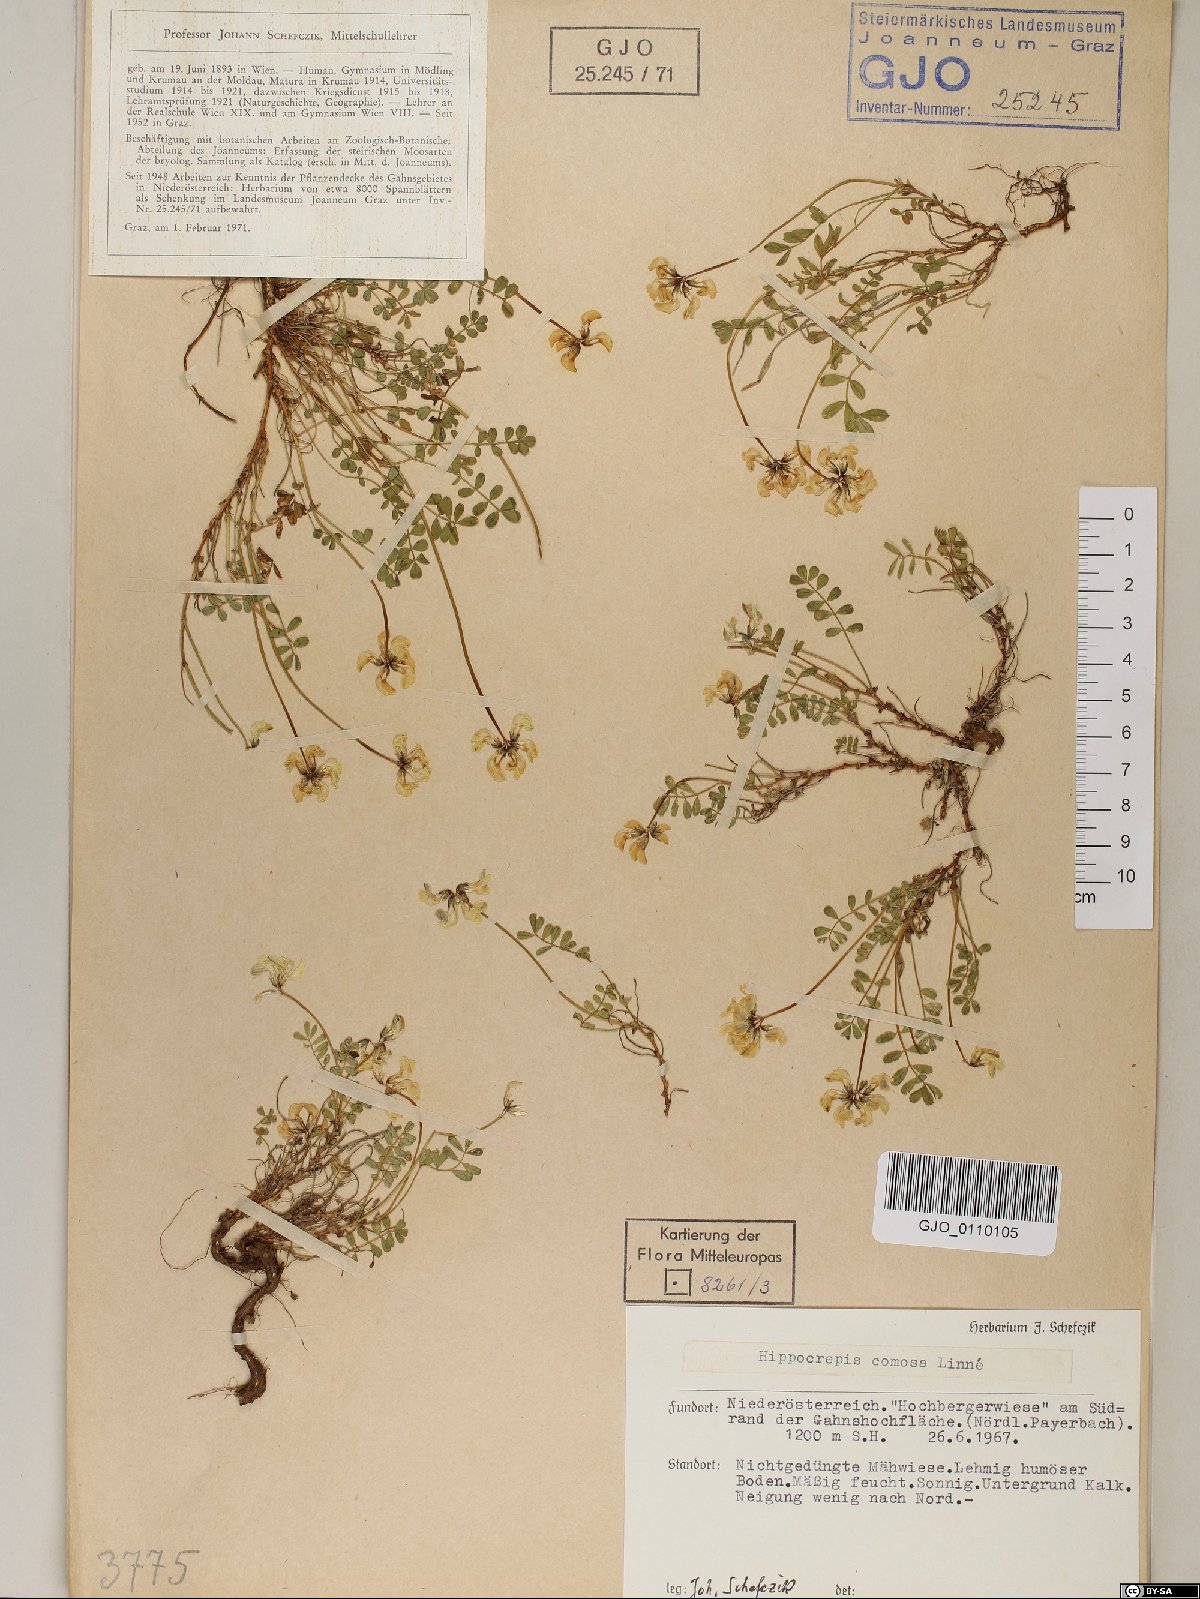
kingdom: Plantae
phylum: Tracheophyta
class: Magnoliopsida
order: Fabales
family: Fabaceae
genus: Hippocrepis
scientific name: Hippocrepis comosa
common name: Horseshoe vetch
